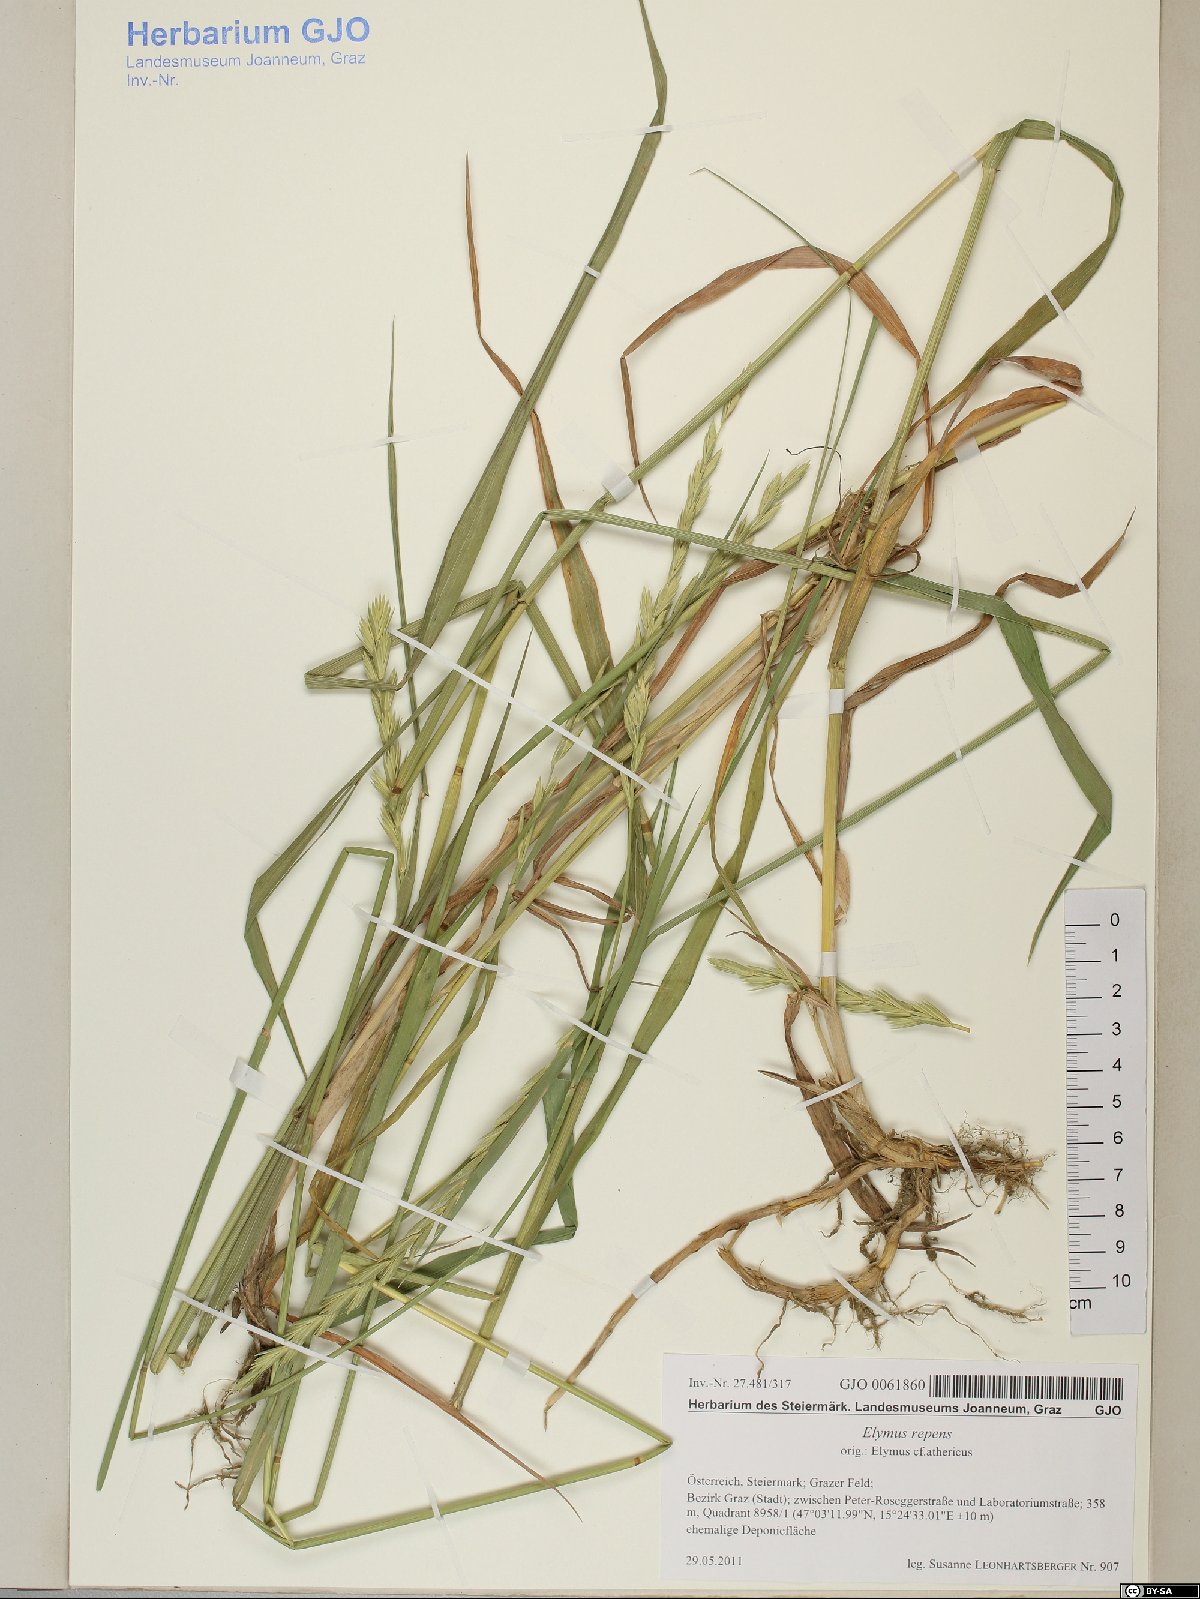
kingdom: Plantae
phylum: Tracheophyta
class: Liliopsida
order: Poales
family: Poaceae
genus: Elymus
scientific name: Elymus repens
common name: Quackgrass
